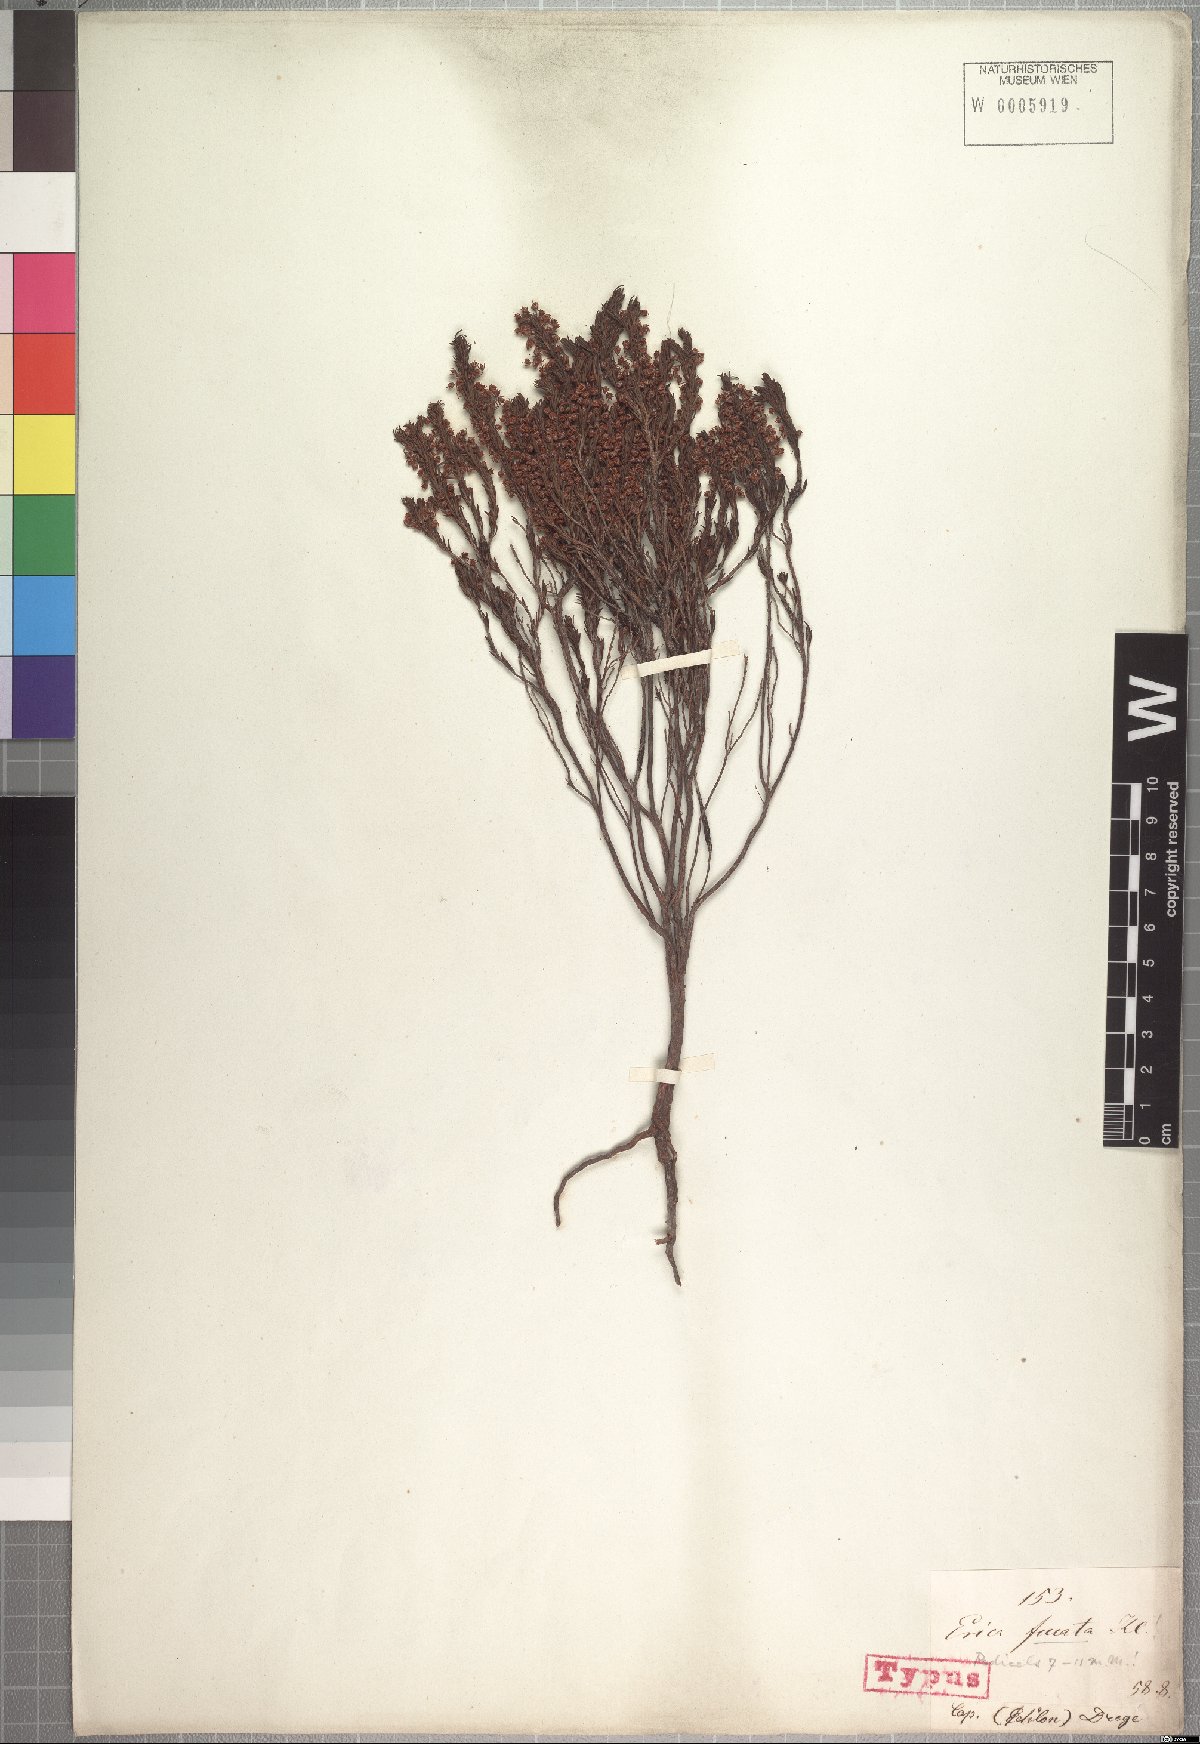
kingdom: Plantae
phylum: Tracheophyta
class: Magnoliopsida
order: Ericales
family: Ericaceae
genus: Erica
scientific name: Erica rubiginosa
